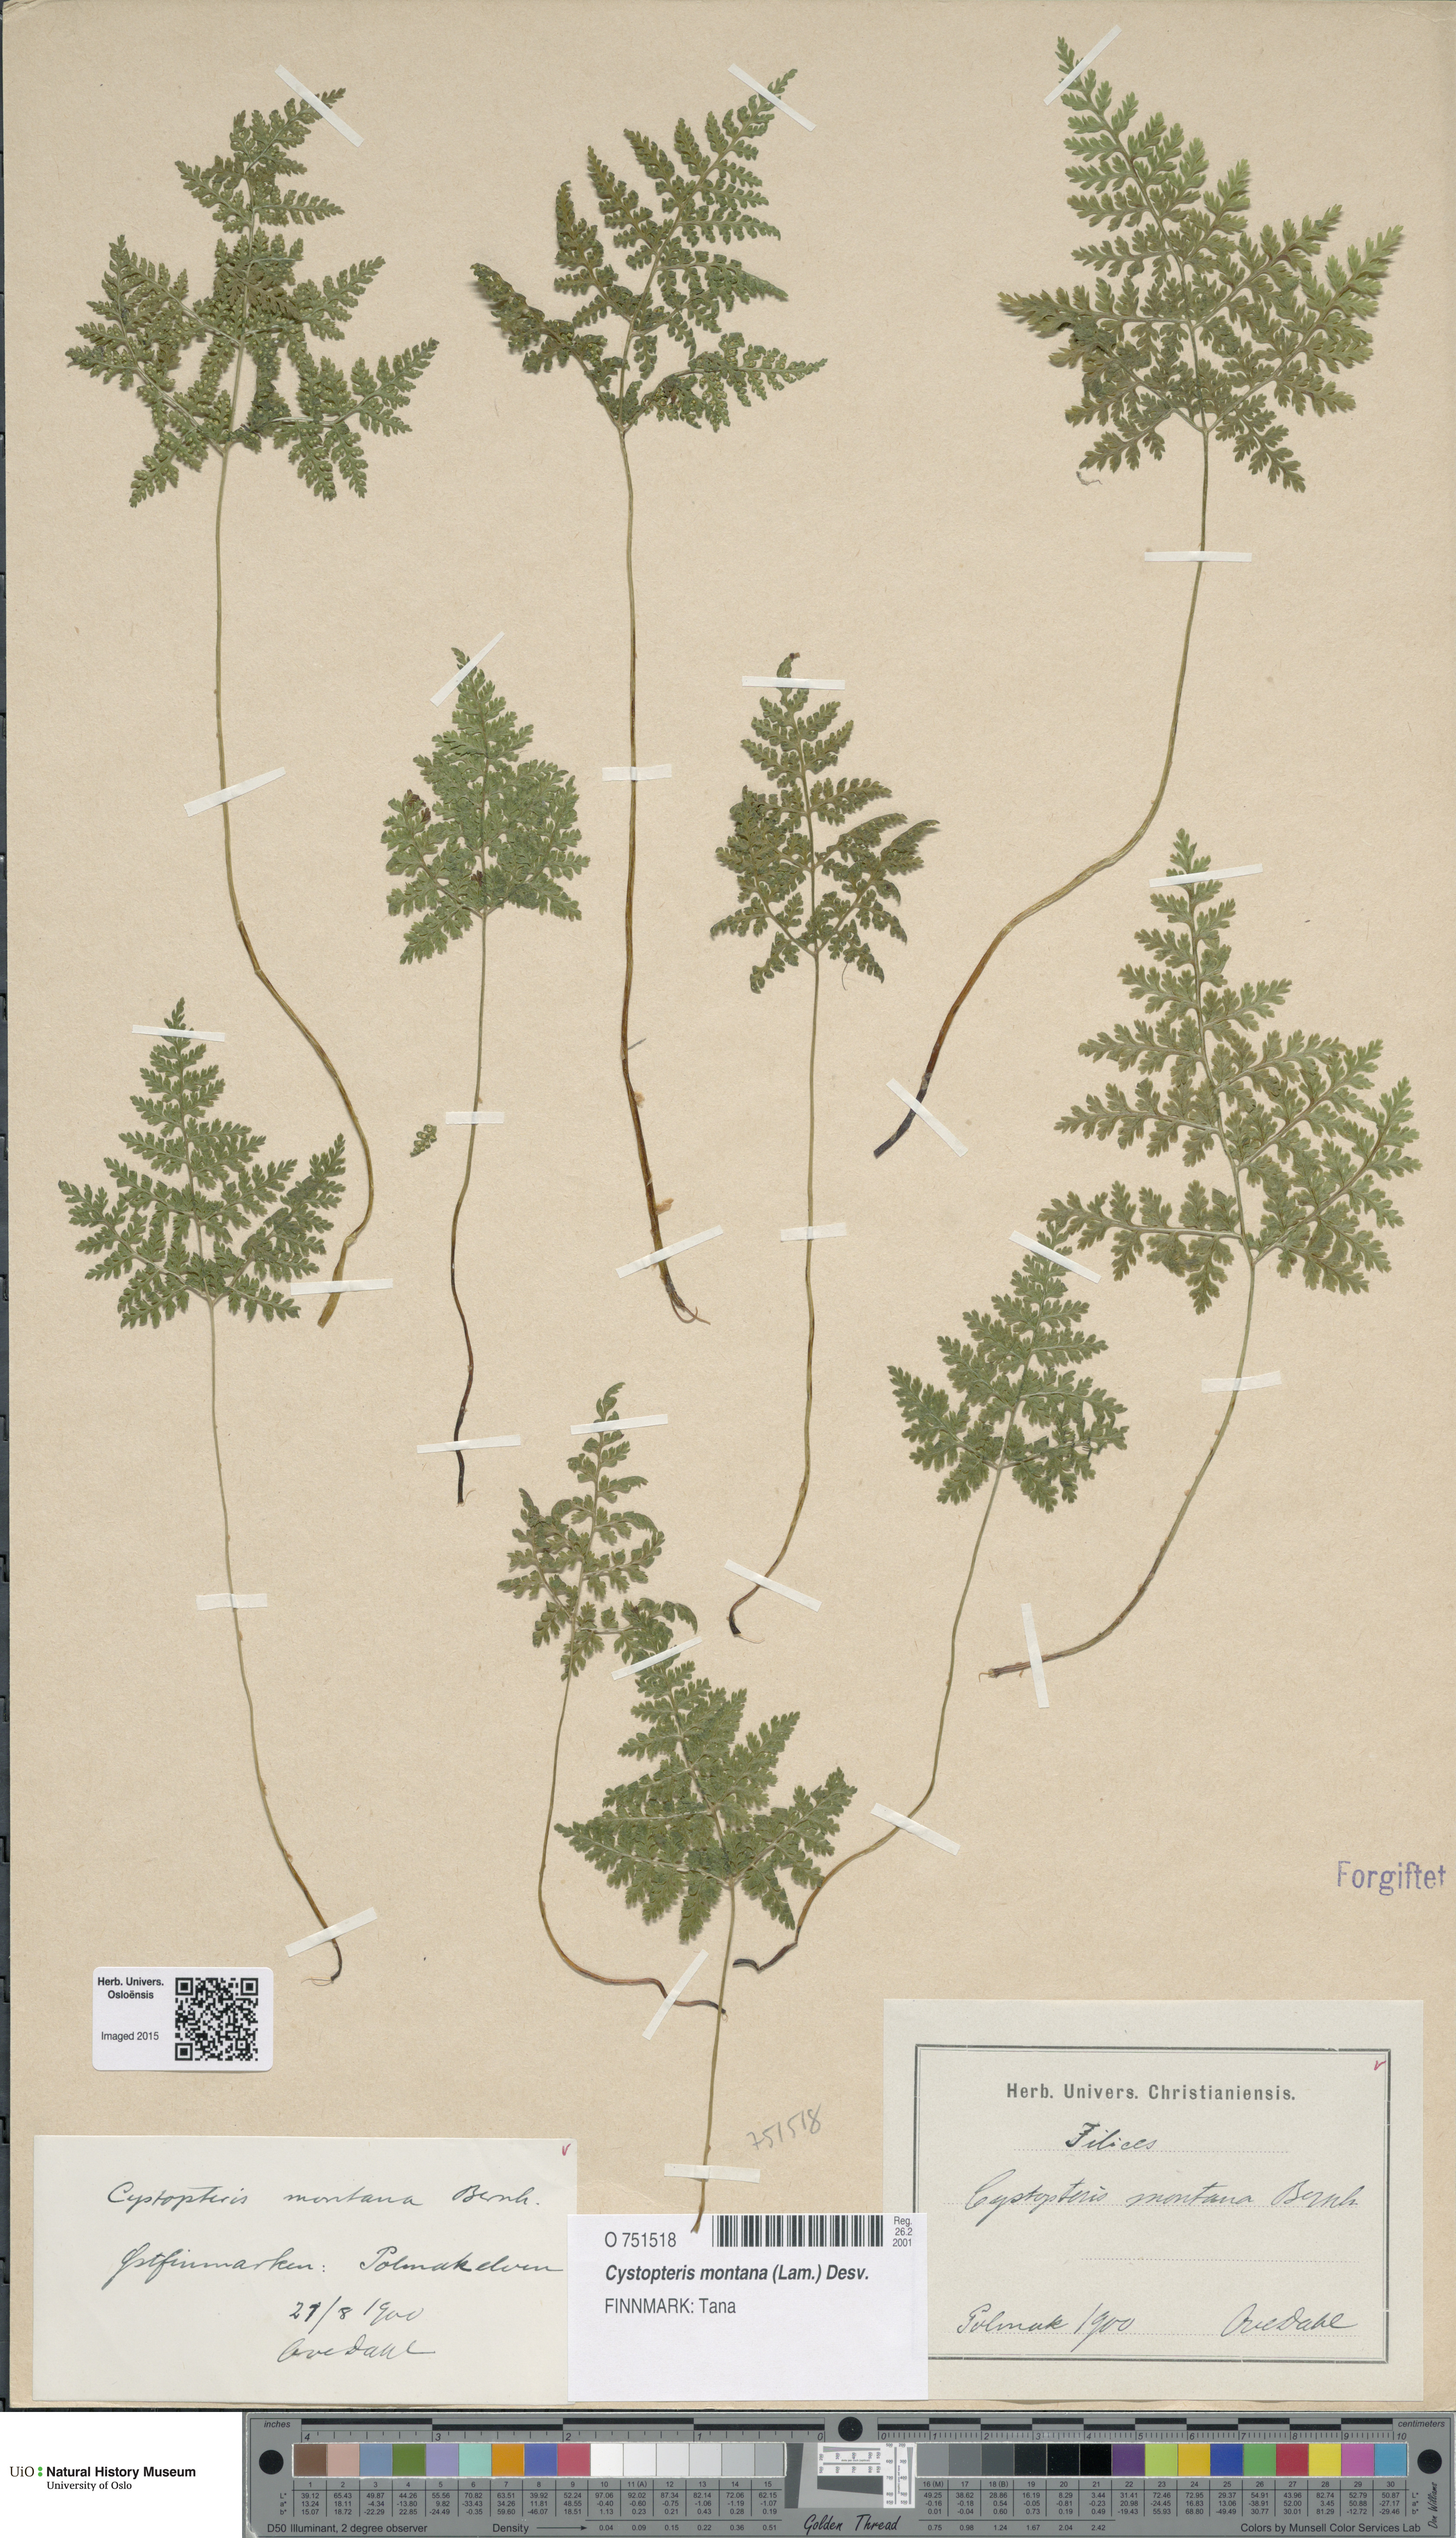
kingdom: Plantae
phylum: Tracheophyta
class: Polypodiopsida
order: Polypodiales
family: Cystopteridaceae
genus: Cystopteris
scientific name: Cystopteris montana
